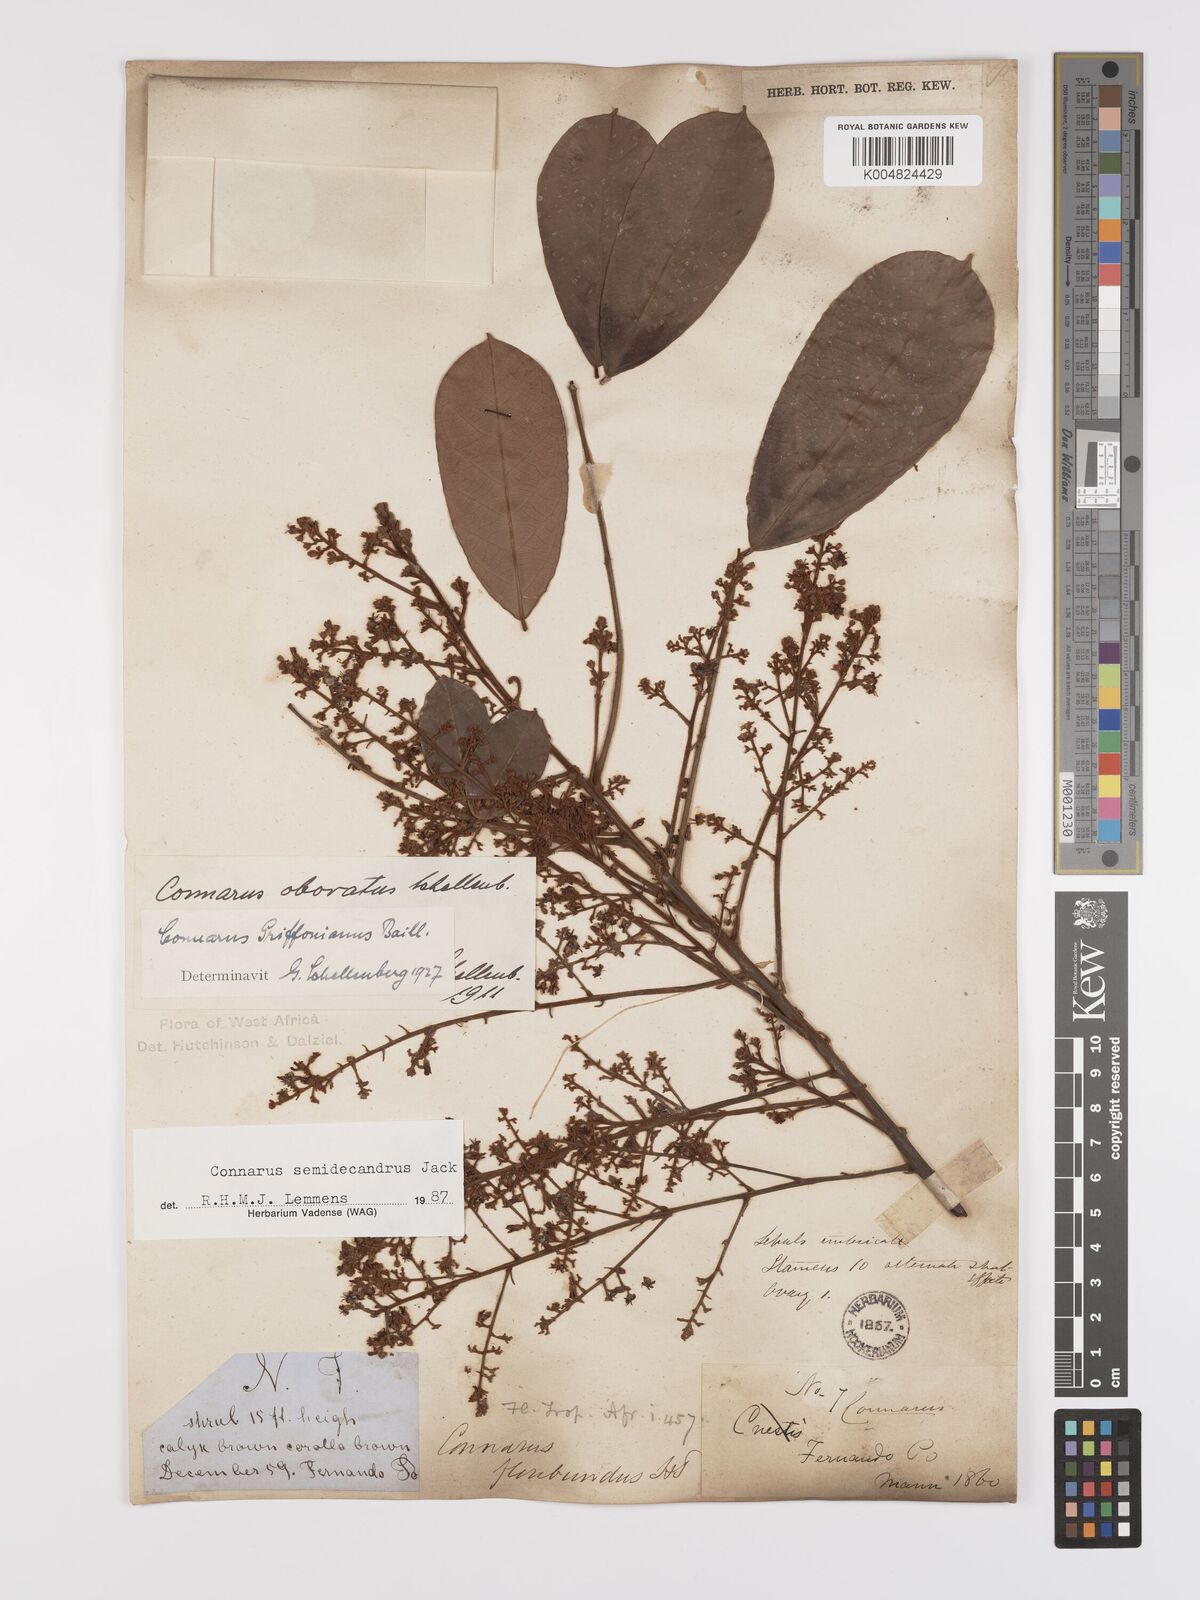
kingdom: Plantae
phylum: Tracheophyta
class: Magnoliopsida
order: Oxalidales
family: Connaraceae
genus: Connarus
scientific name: Connarus griffonianus
